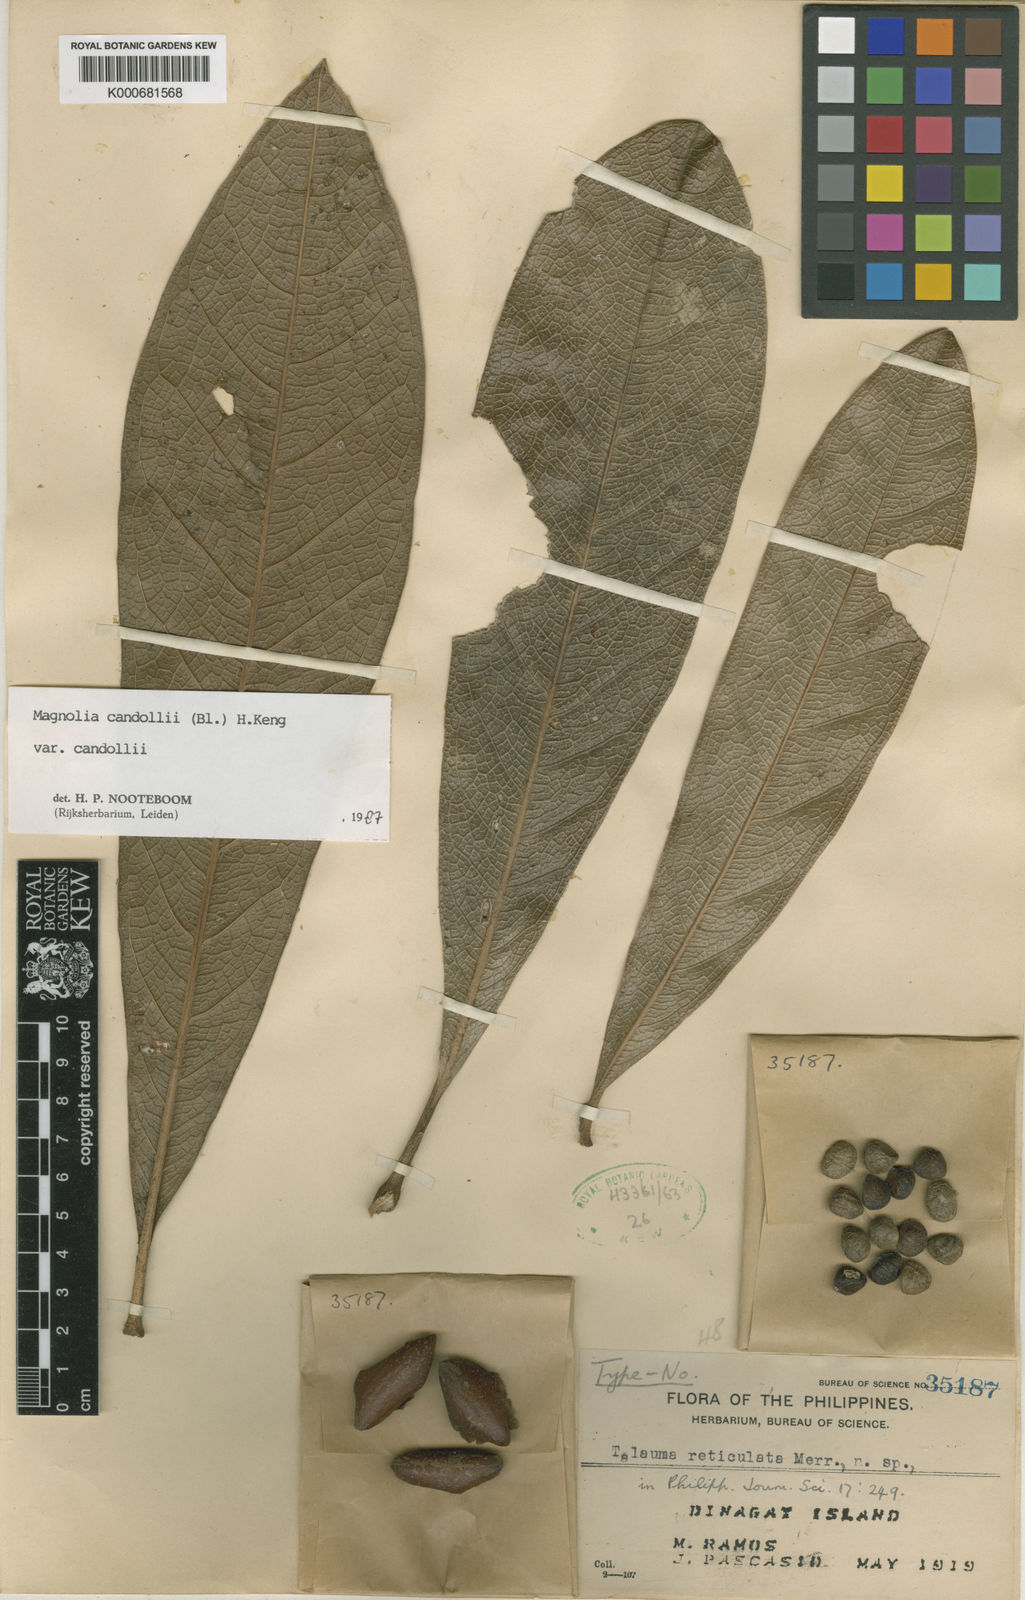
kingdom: Plantae
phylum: Tracheophyta
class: Magnoliopsida
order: Magnoliales
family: Magnoliaceae
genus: Magnolia
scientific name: Magnolia liliifera
